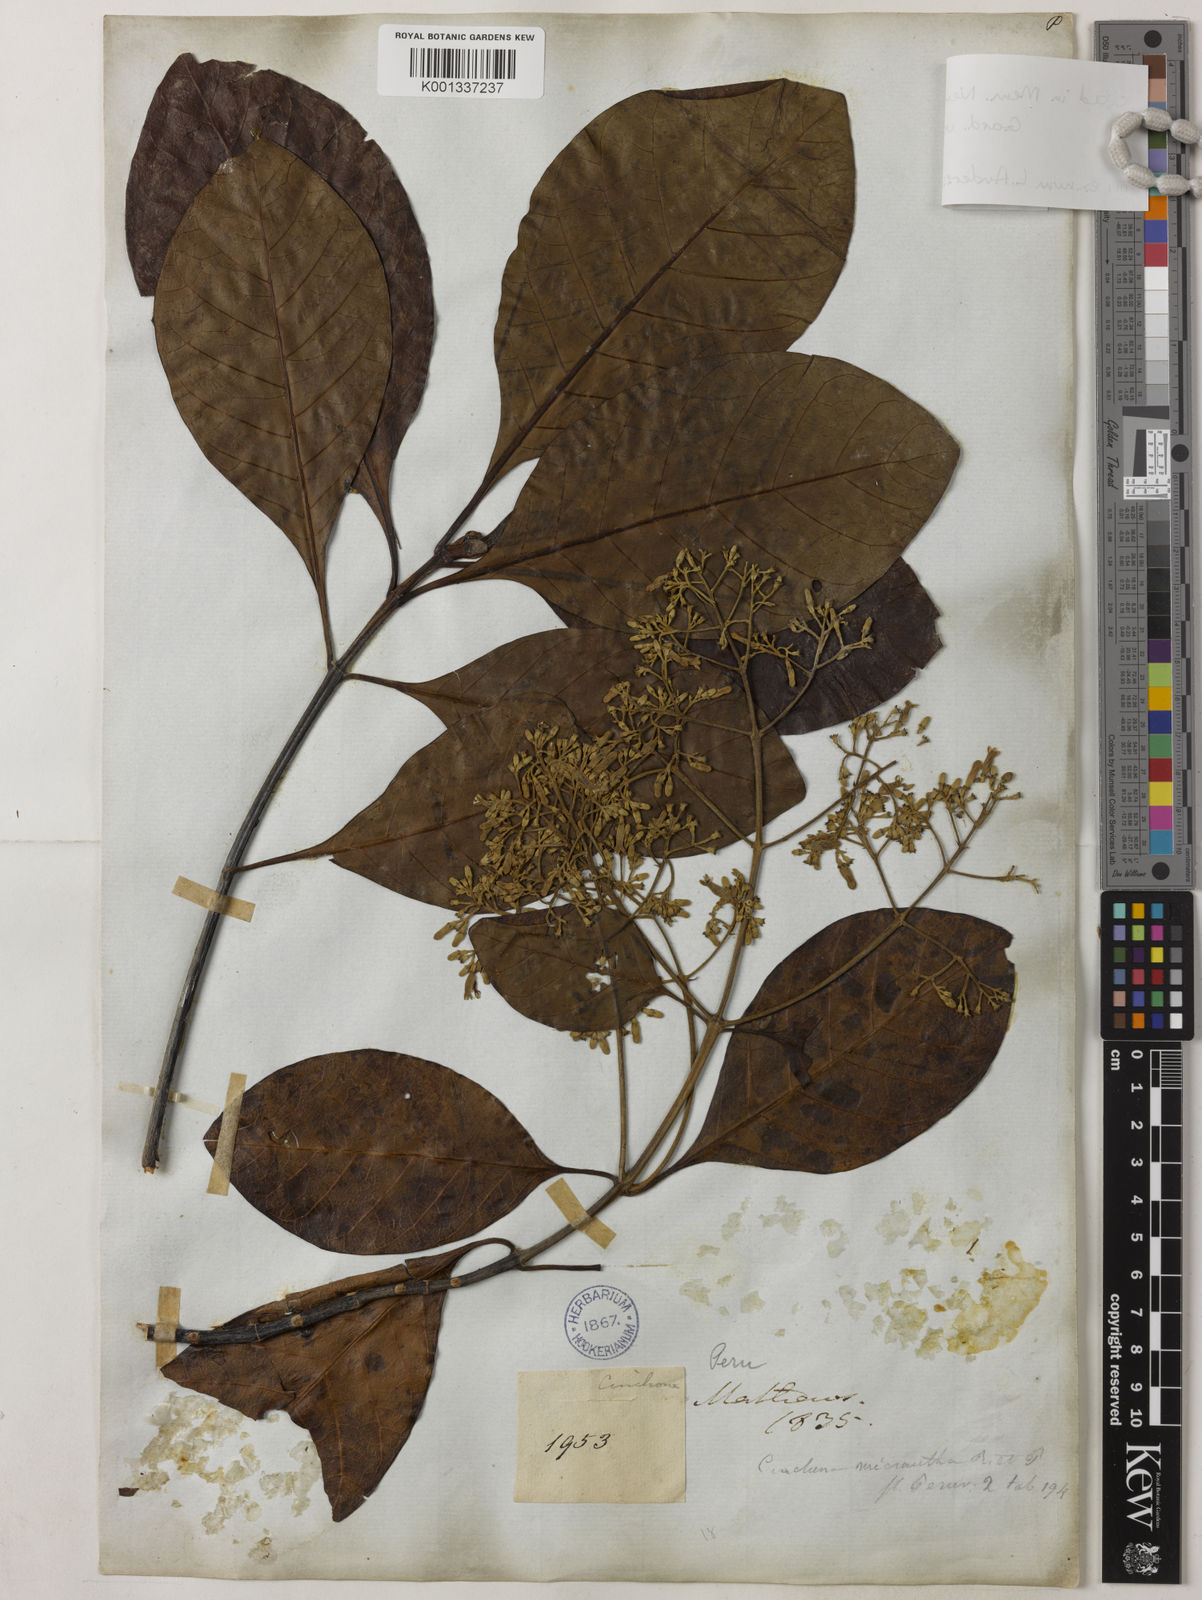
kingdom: Plantae
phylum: Tracheophyta
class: Magnoliopsida
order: Gentianales
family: Rubiaceae
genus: Cinchona
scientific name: Cinchona micrantha
